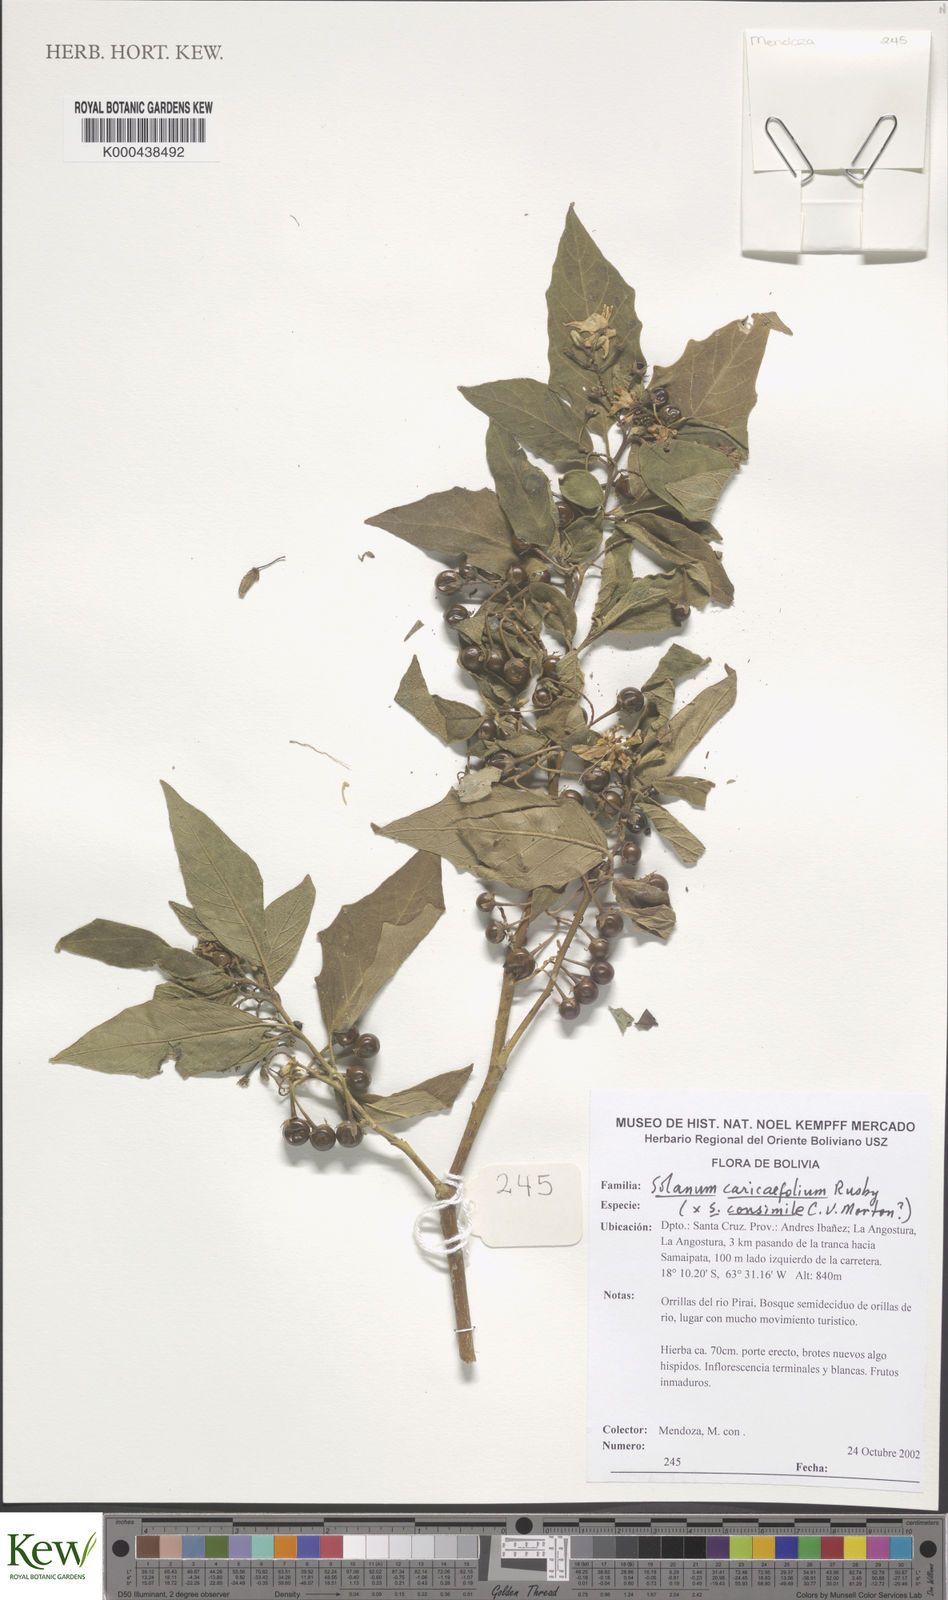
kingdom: Plantae
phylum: Tracheophyta
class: Magnoliopsida
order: Solanales
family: Solanaceae
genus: Solanum
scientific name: Solanum caricaefolium
